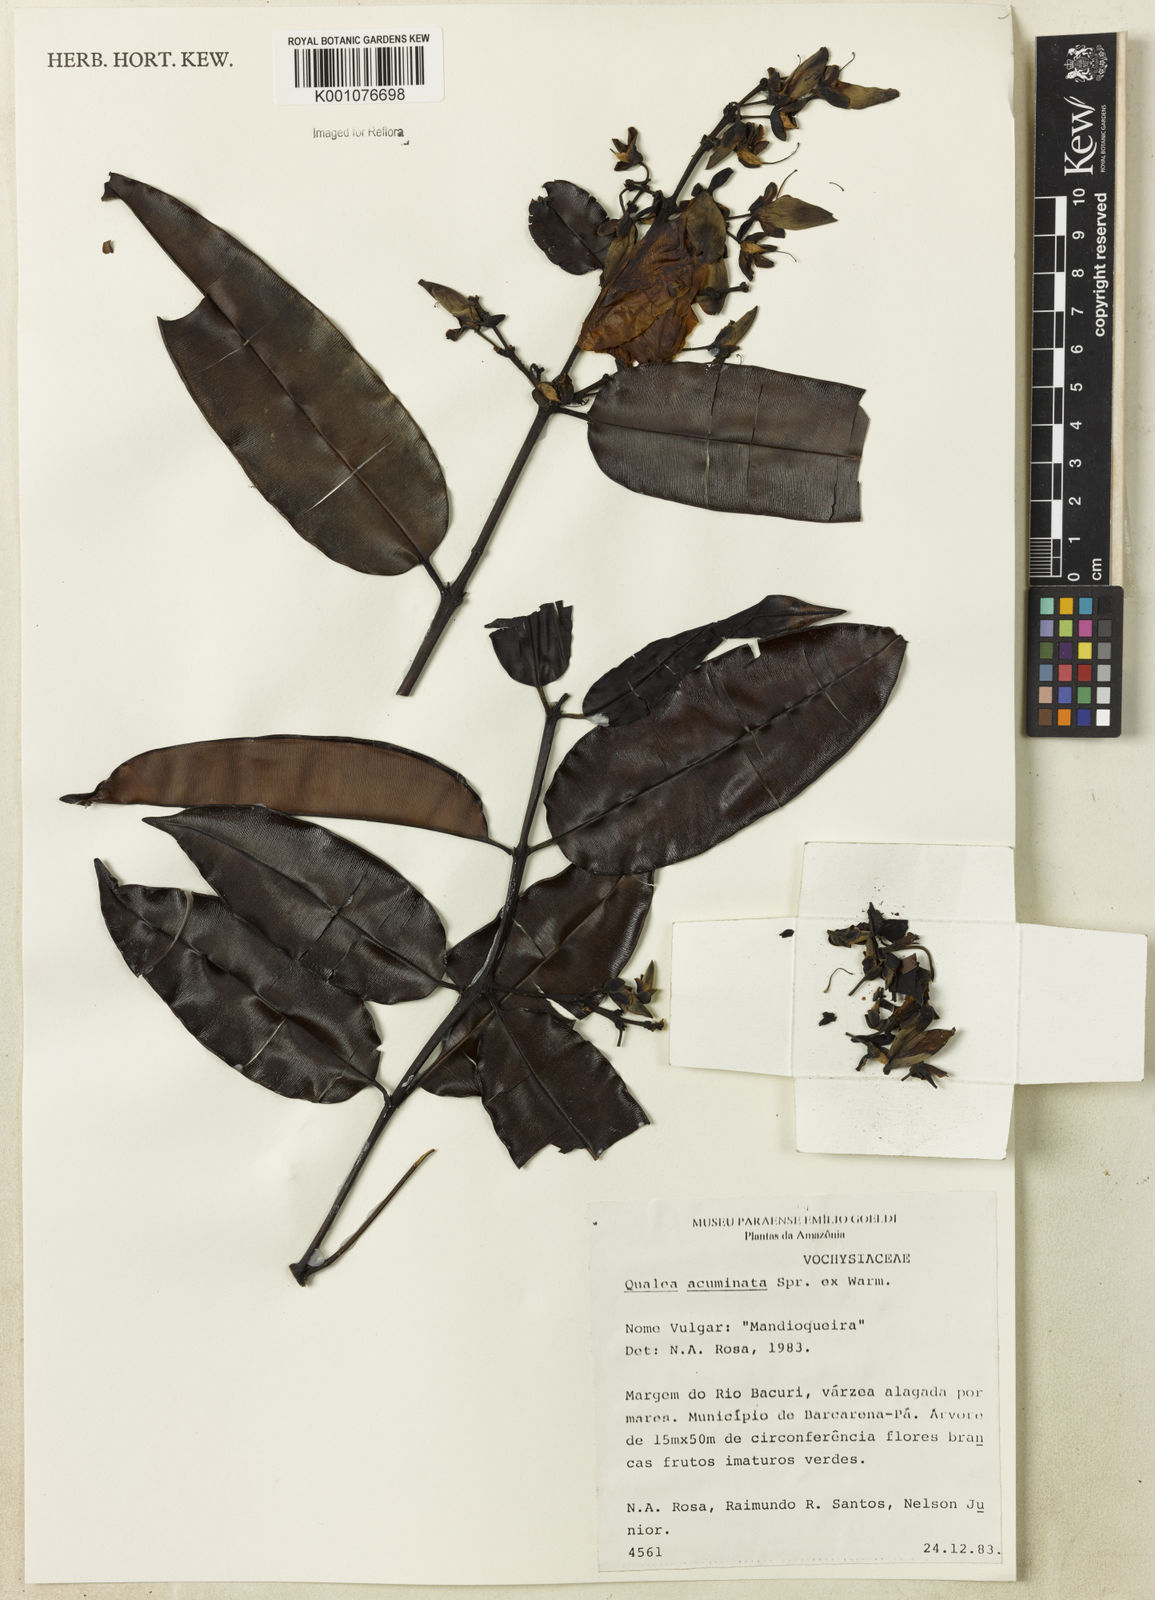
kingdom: Plantae
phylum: Tracheophyta
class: Magnoliopsida
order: Myrtales
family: Vochysiaceae
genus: Qualea
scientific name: Qualea acuminata
